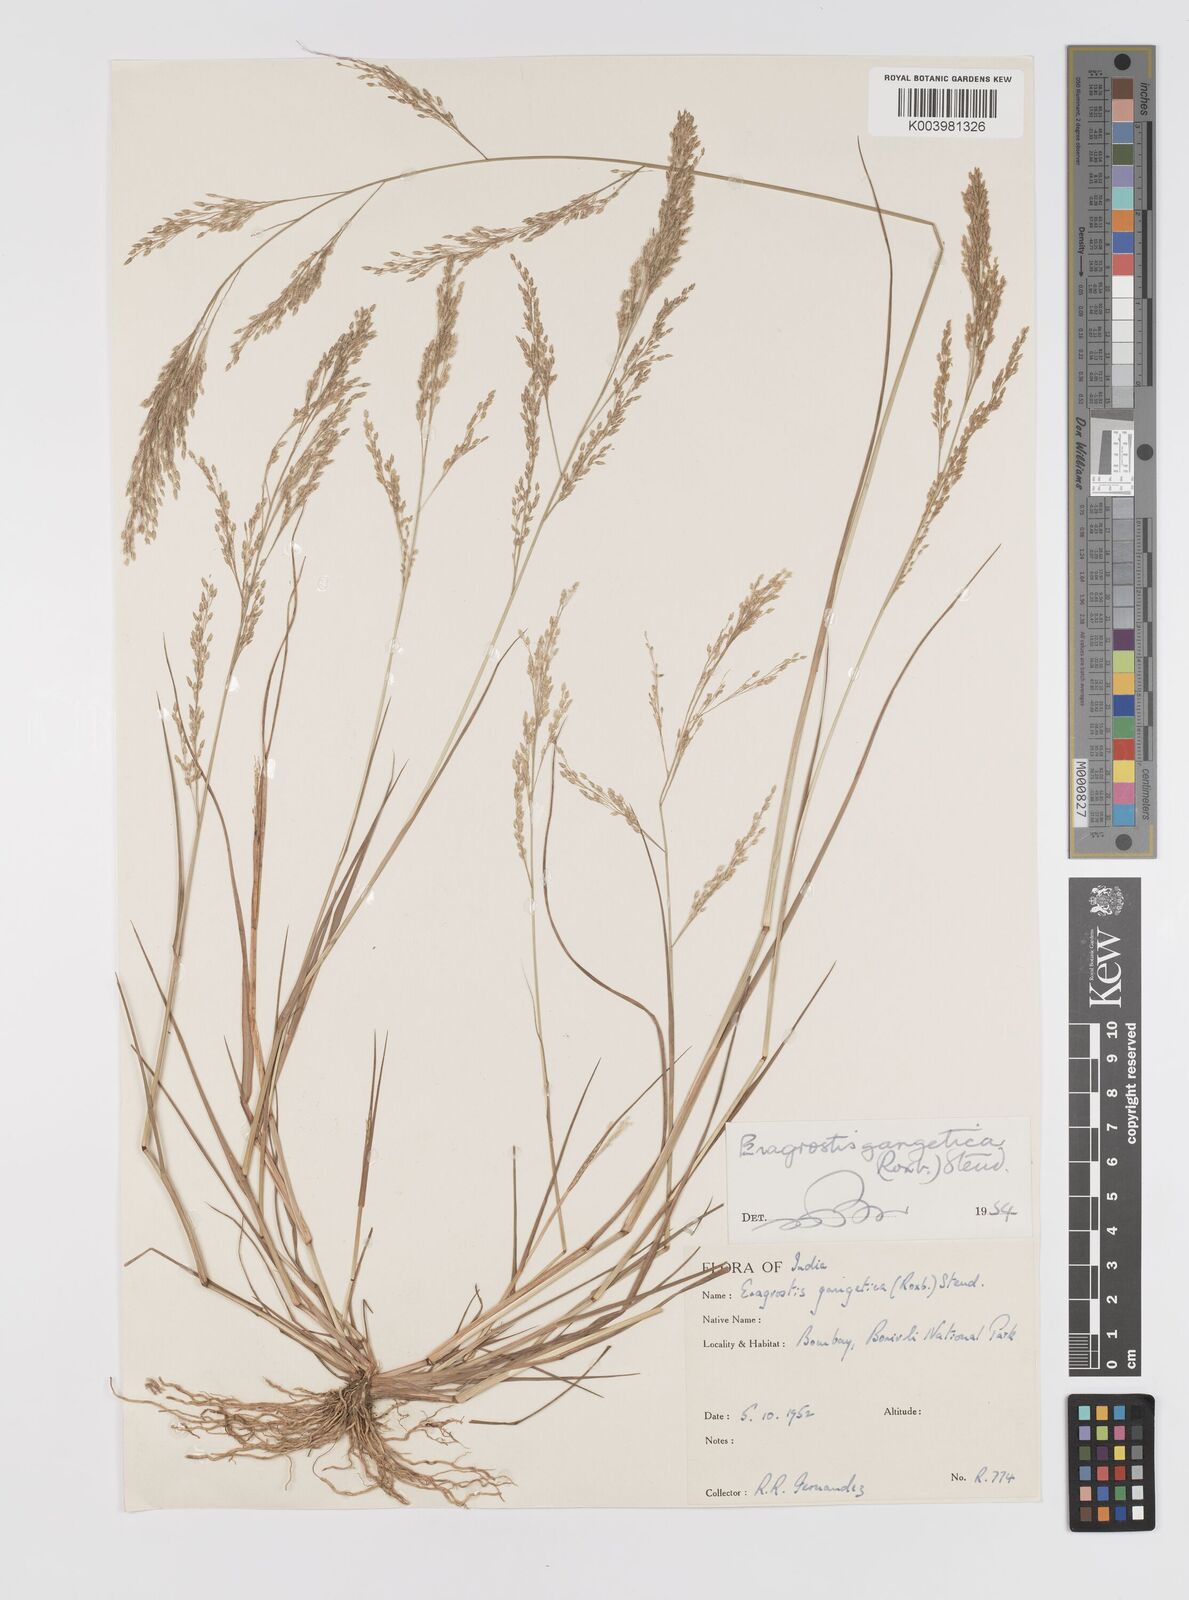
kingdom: Plantae
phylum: Tracheophyta
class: Liliopsida
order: Poales
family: Poaceae
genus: Eragrostis
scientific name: Eragrostis gangetica
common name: Slimflower lovegrass
